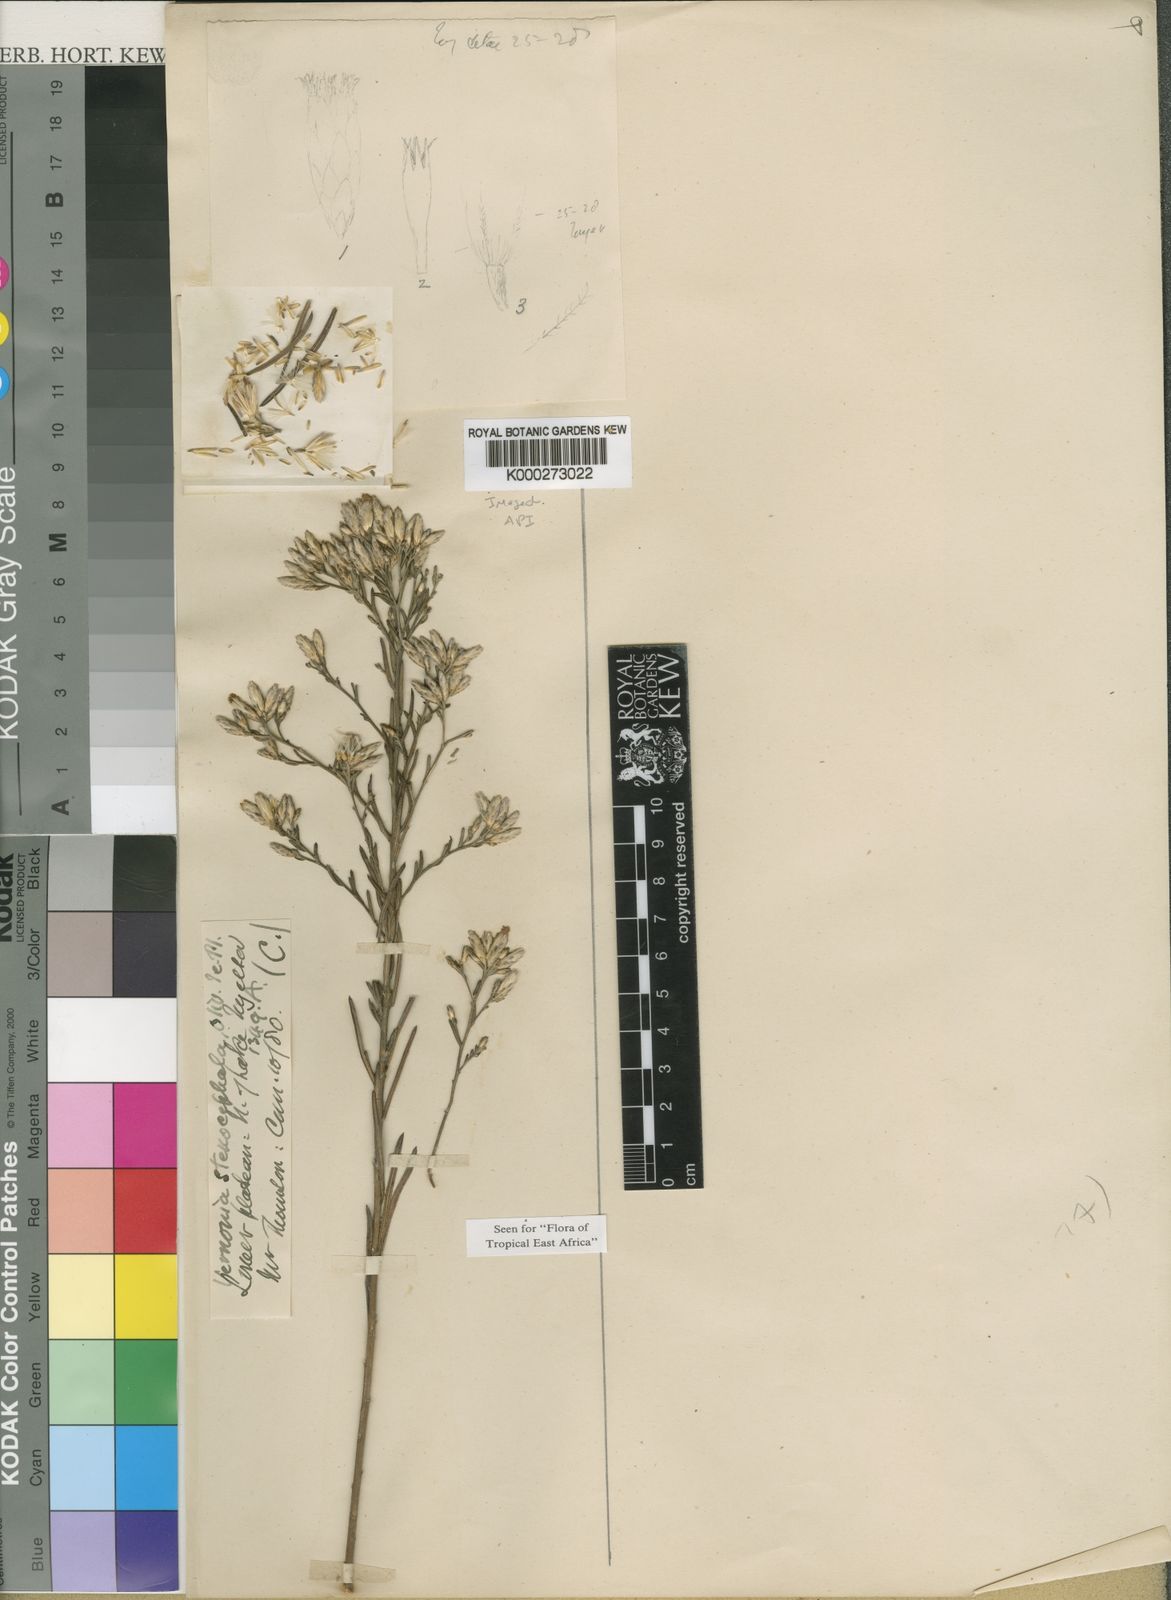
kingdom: Plantae
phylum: Tracheophyta
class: Magnoliopsida
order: Asterales
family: Asteraceae
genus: Oocephala
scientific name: Oocephala stenocephala
